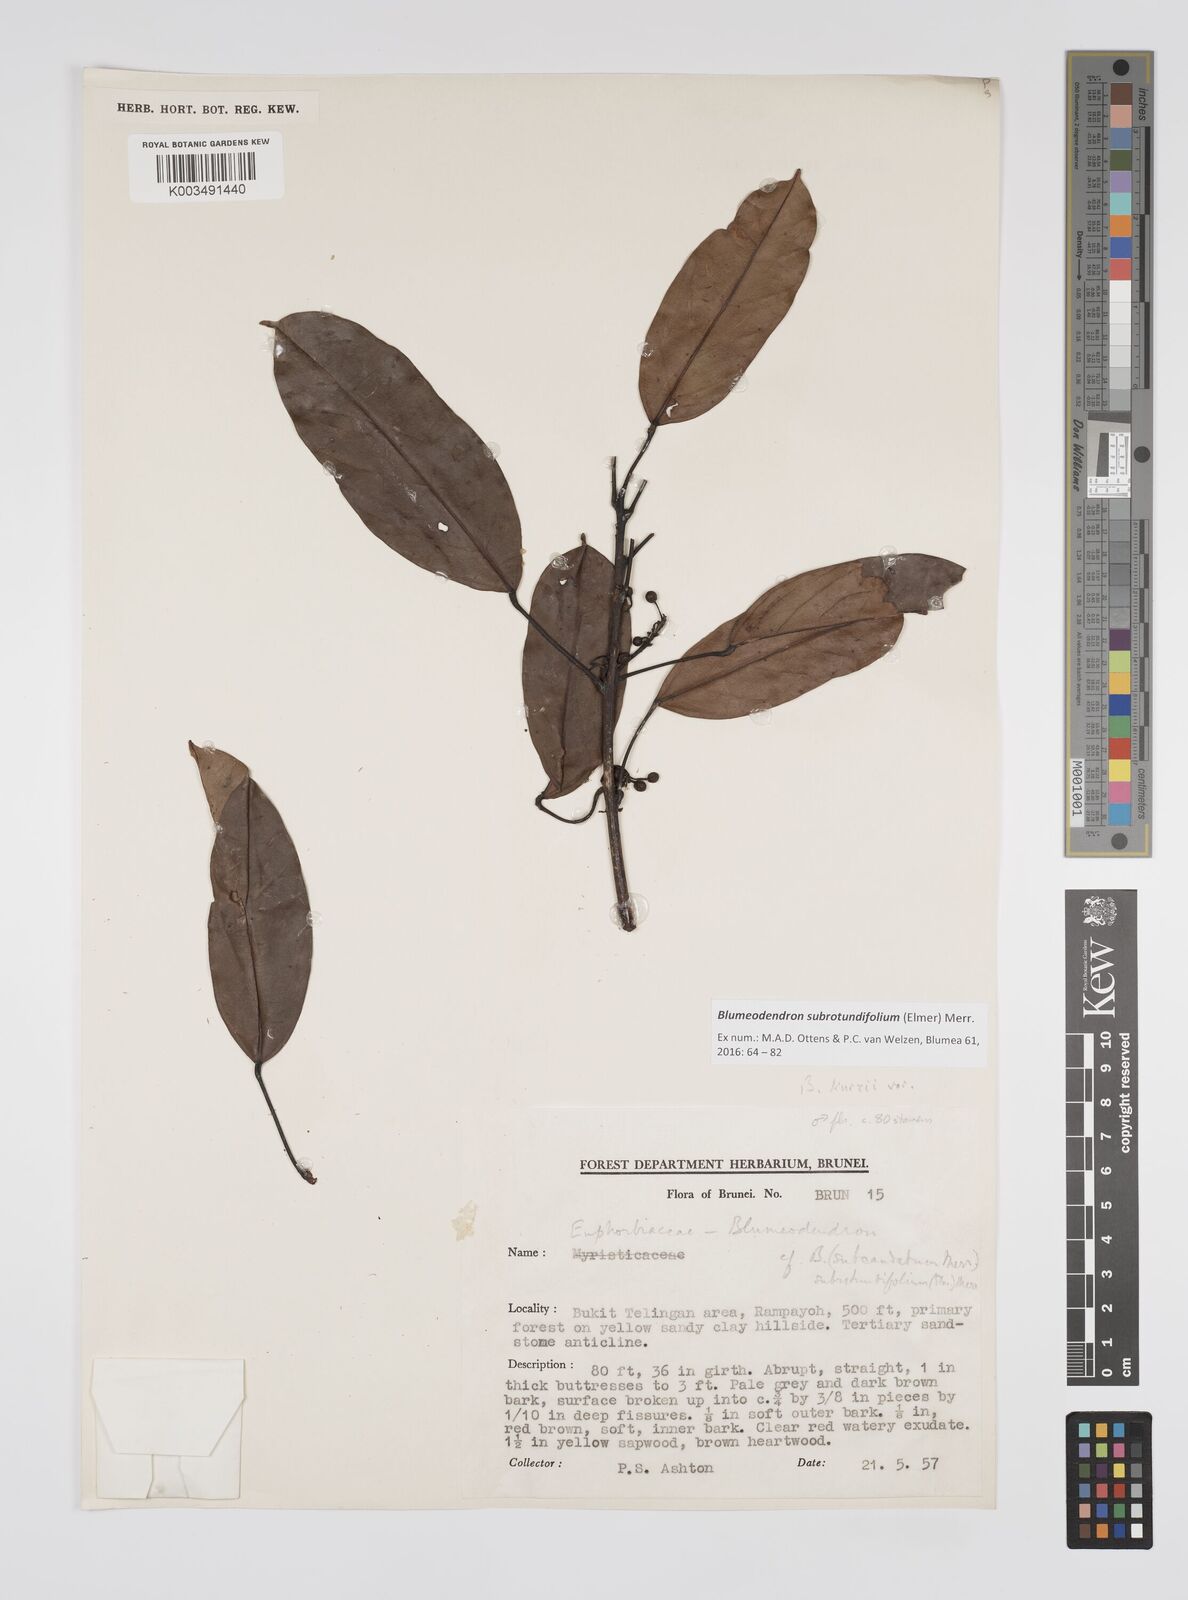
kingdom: Plantae
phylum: Tracheophyta
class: Magnoliopsida
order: Malpighiales
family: Euphorbiaceae
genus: Blumeodendron
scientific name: Blumeodendron subrotundifolium
